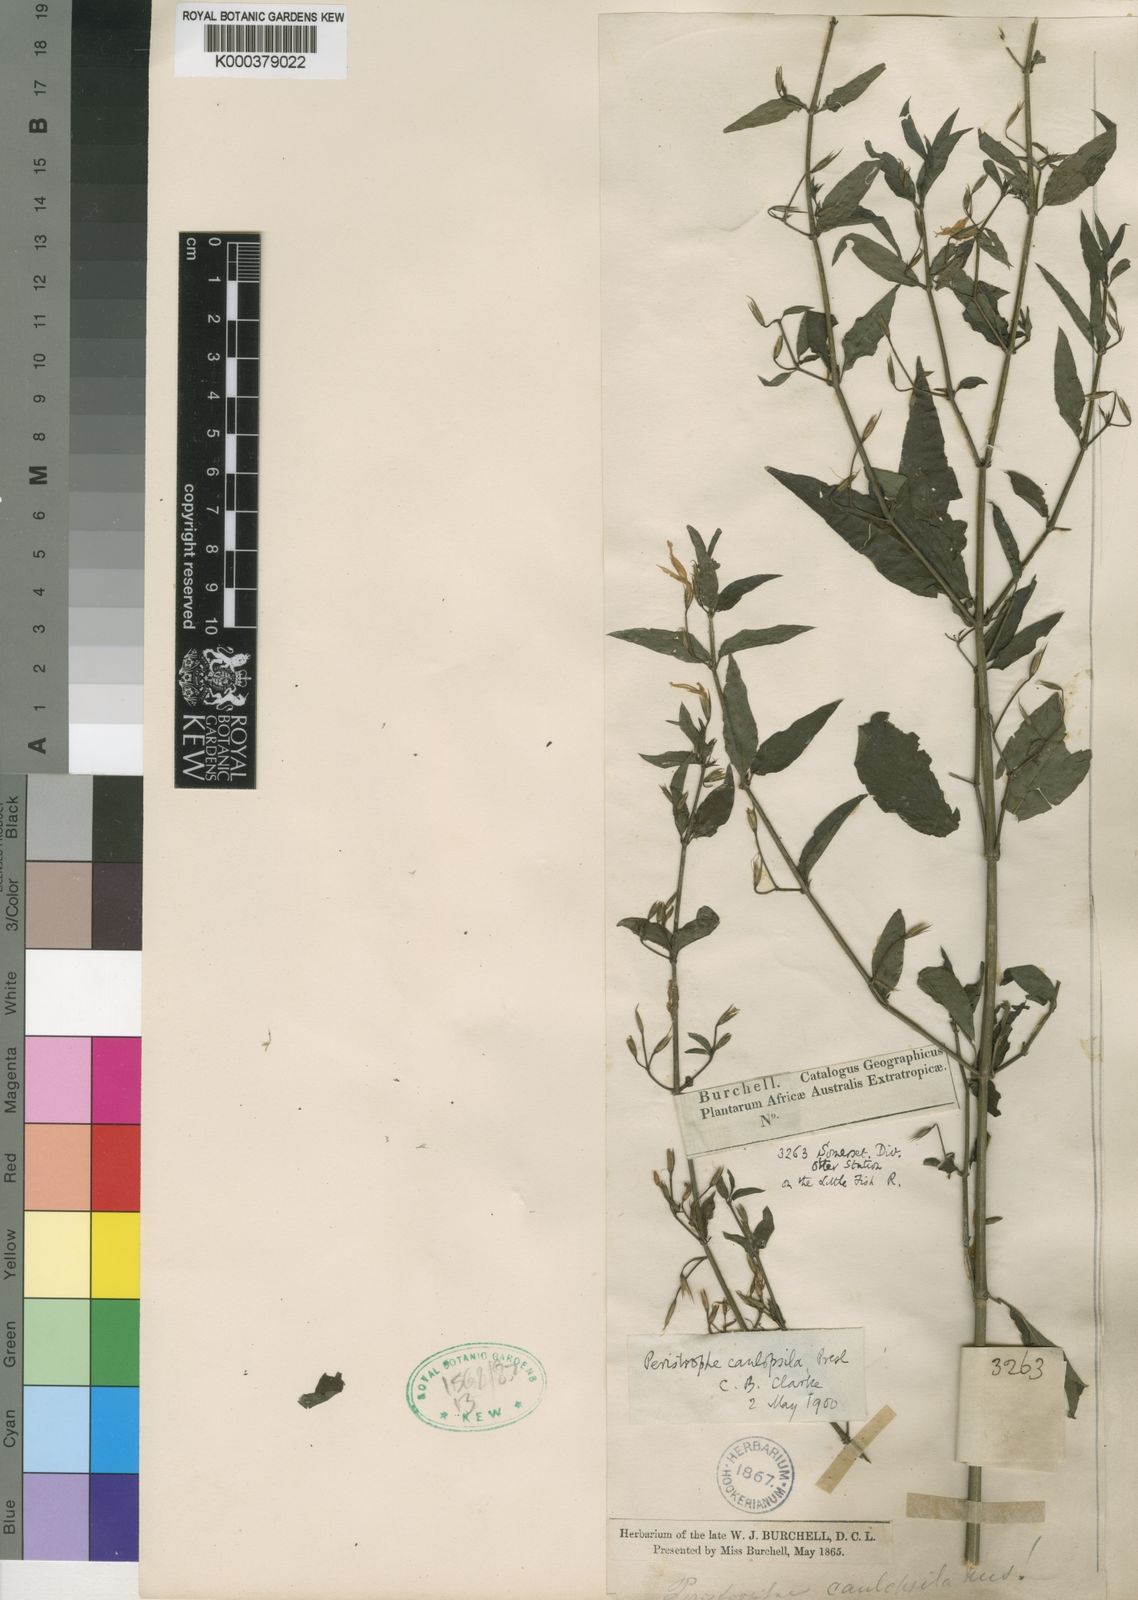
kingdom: Plantae
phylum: Tracheophyta
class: Magnoliopsida
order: Lamiales
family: Acanthaceae
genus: Dicliptera
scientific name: Dicliptera cernua
